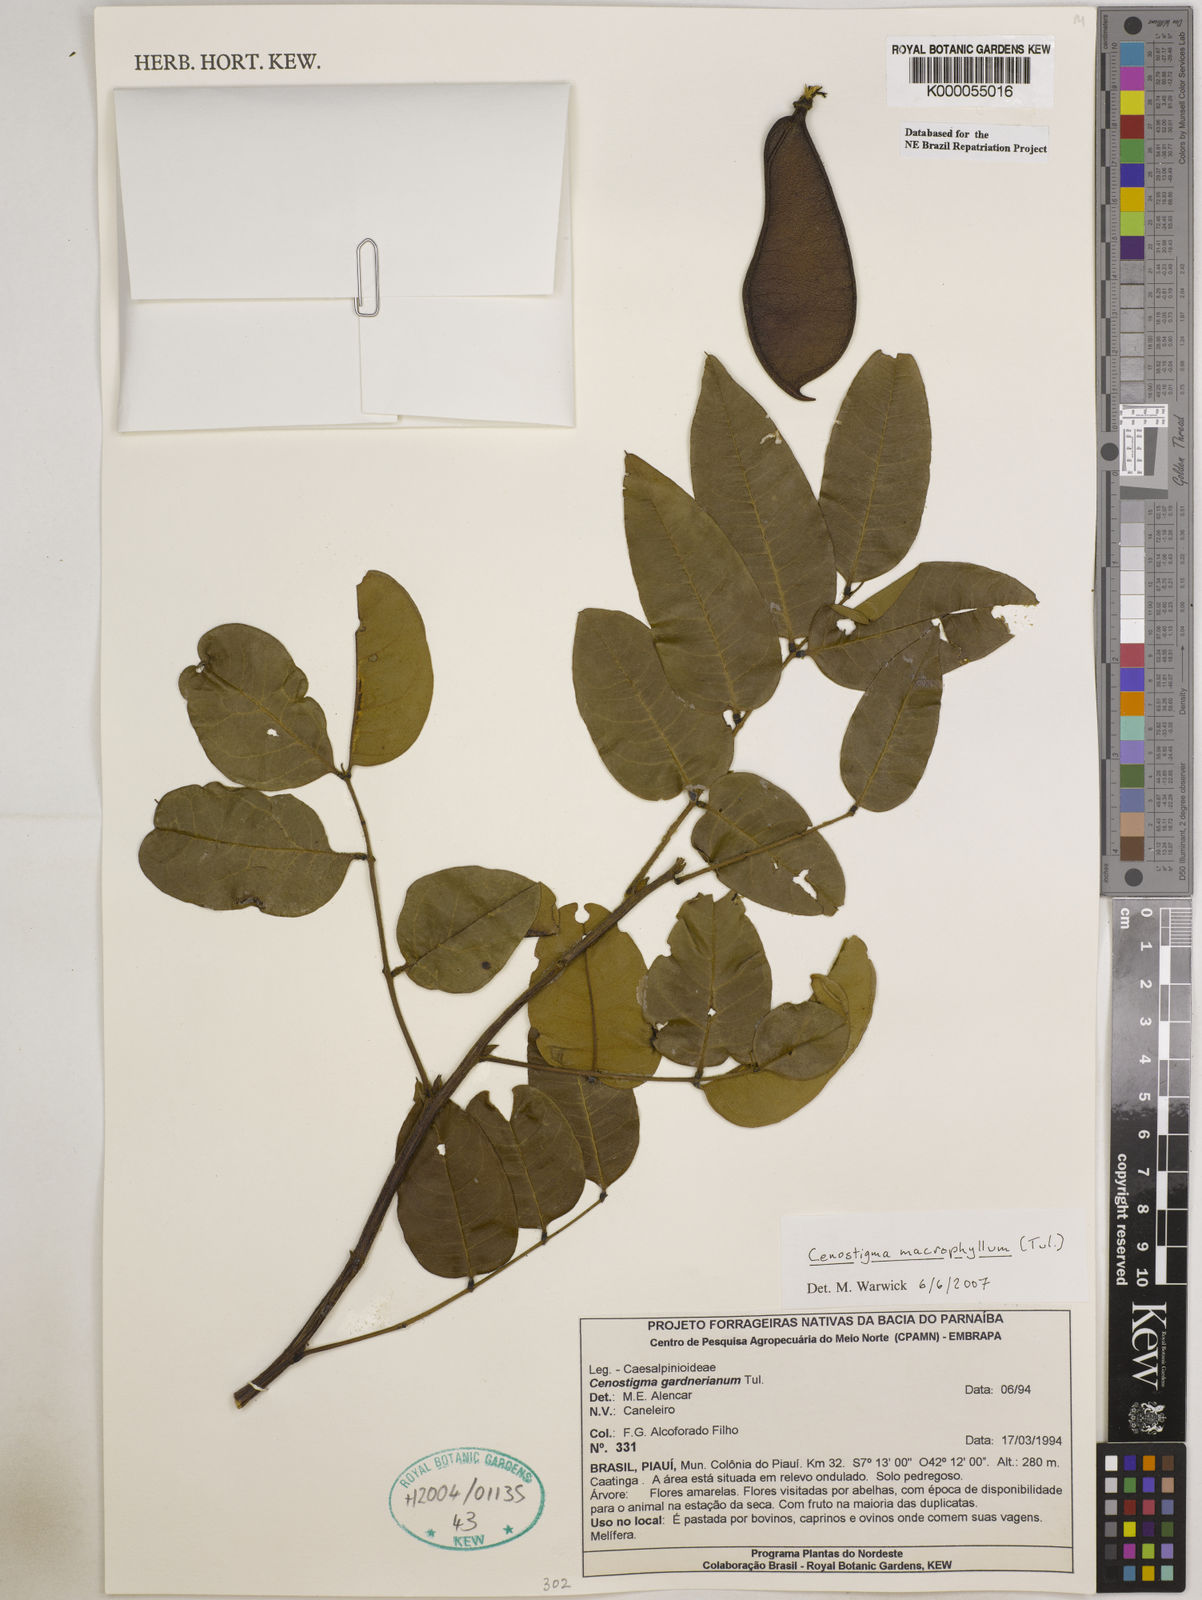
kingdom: Plantae
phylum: Tracheophyta
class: Magnoliopsida
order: Fabales
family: Fabaceae
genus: Cenostigma
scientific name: Cenostigma macrophyllum
